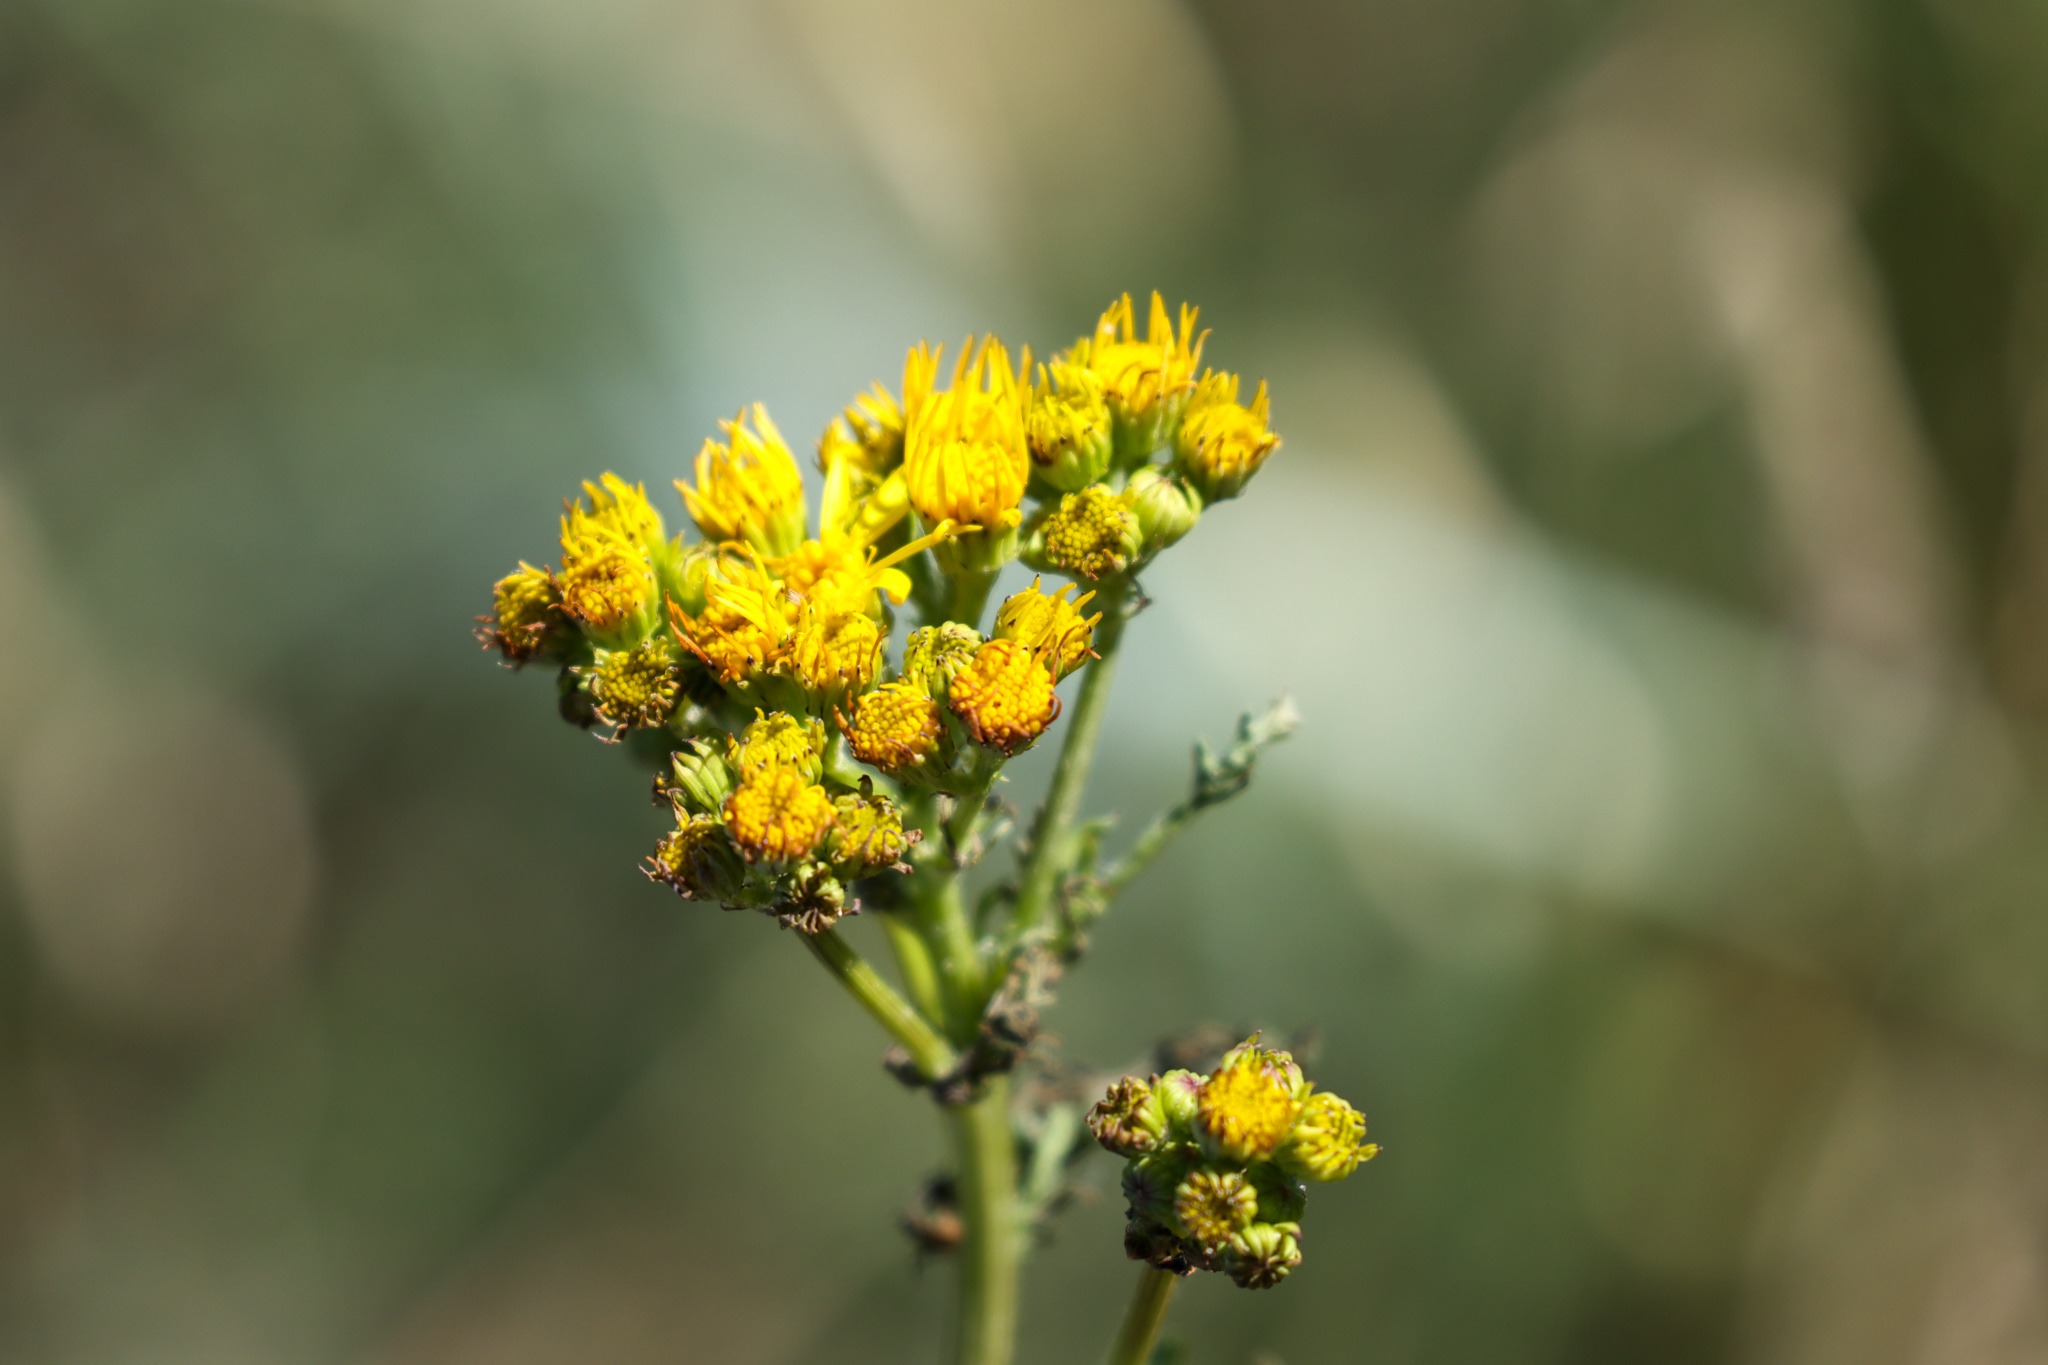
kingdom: Plantae
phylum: Tracheophyta
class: Magnoliopsida
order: Asterales
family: Asteraceae
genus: Jacobaea
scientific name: Jacobaea vulgaris
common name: Eng-brandbæger
